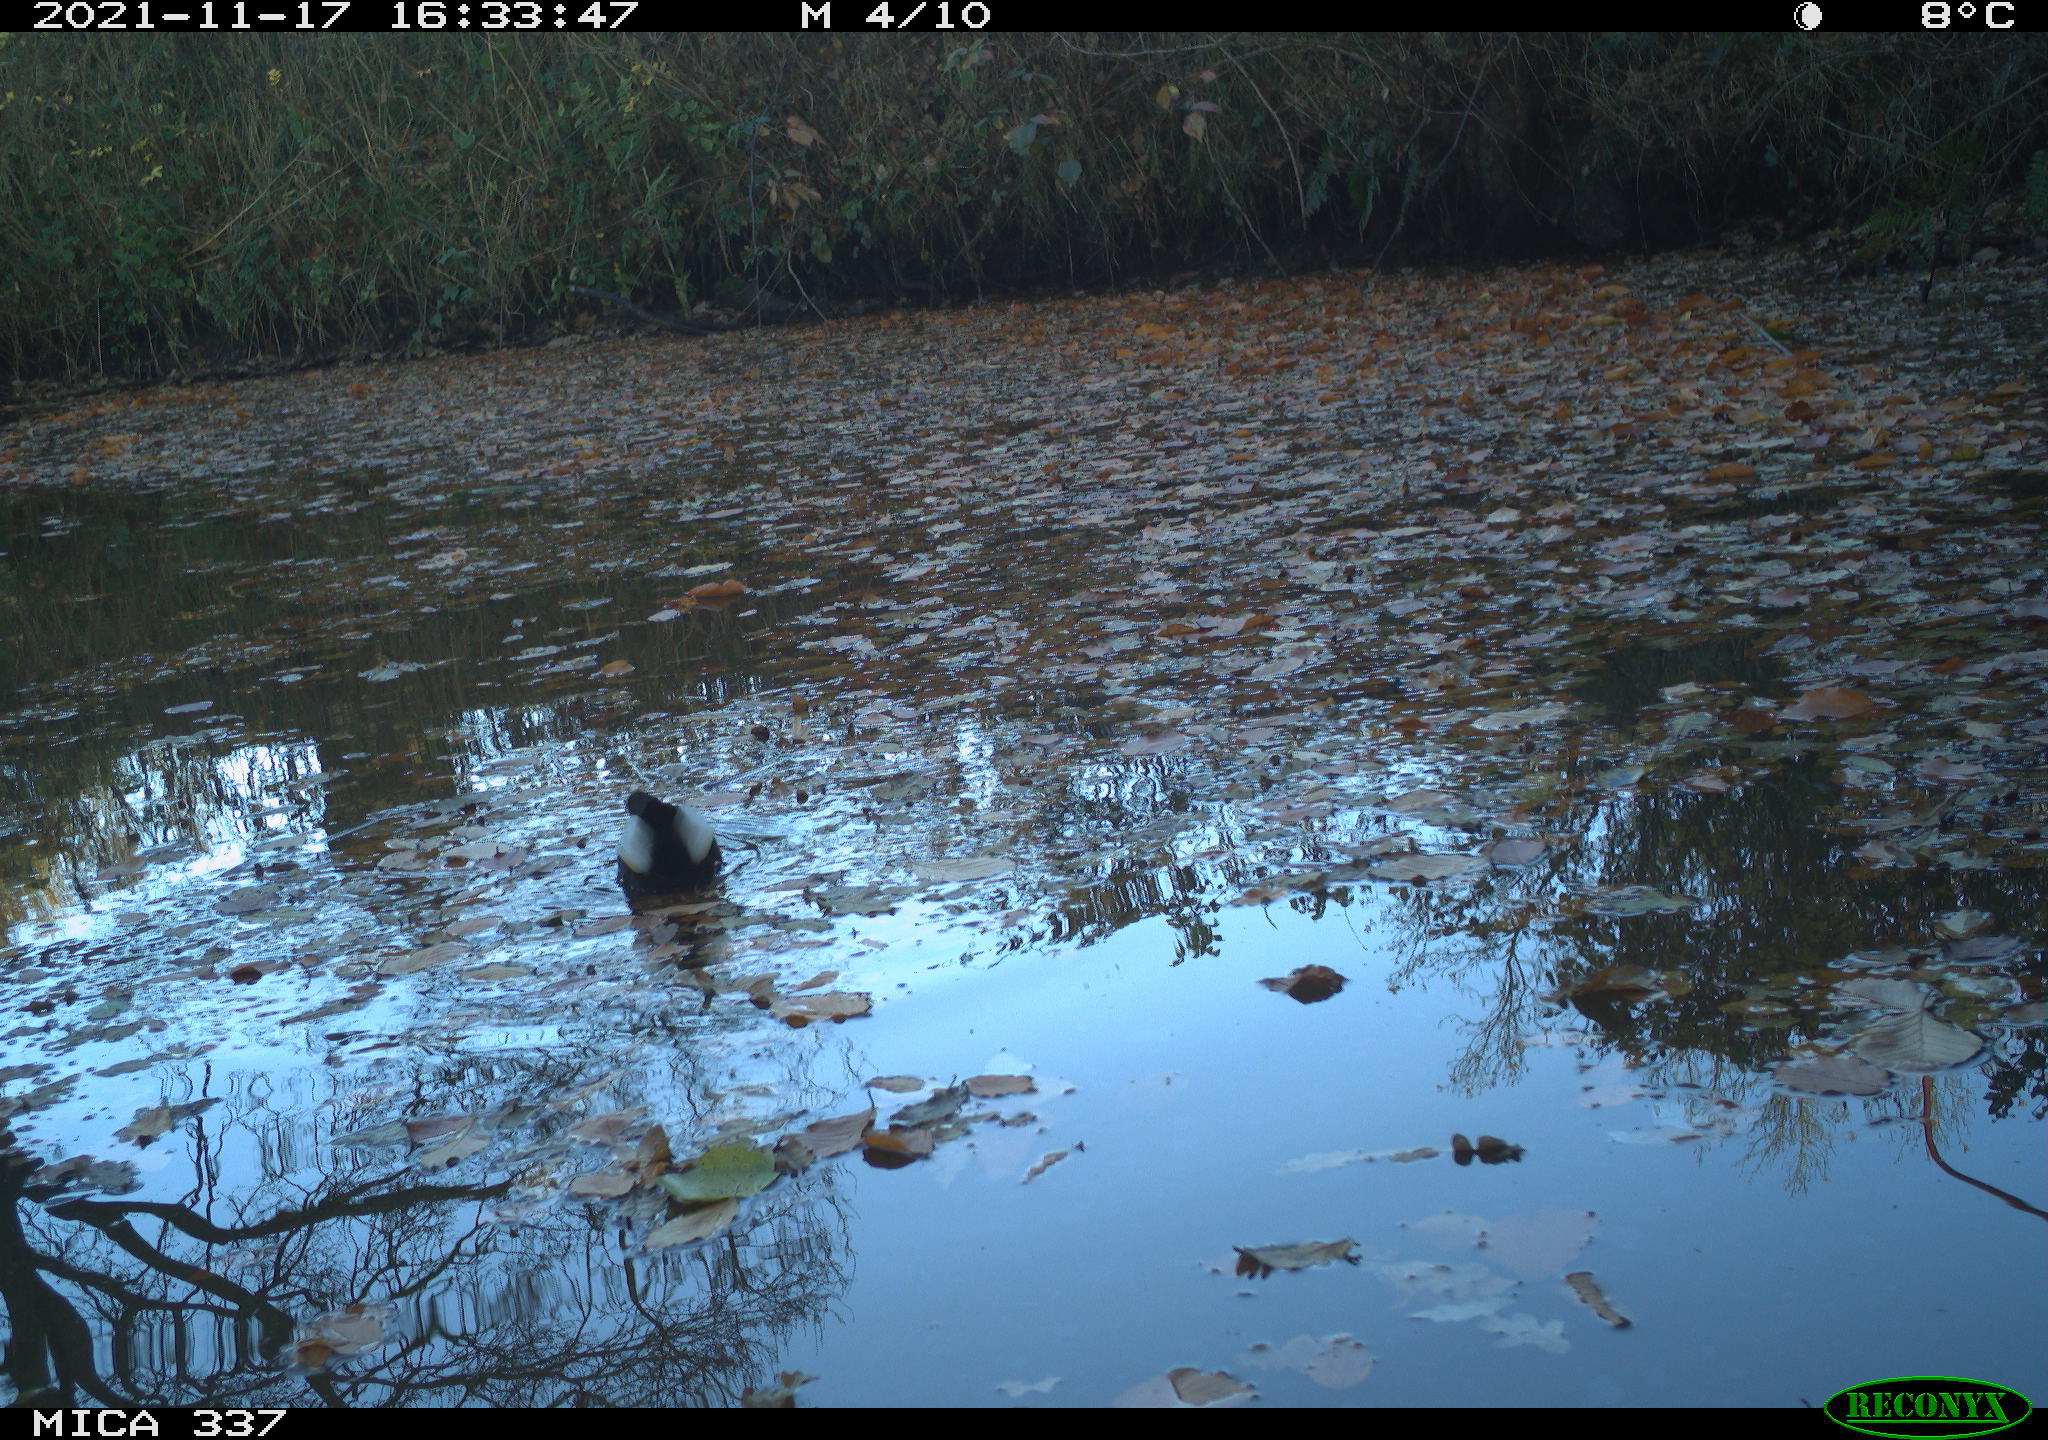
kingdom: Animalia
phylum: Chordata
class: Aves
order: Gruiformes
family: Rallidae
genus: Gallinula
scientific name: Gallinula chloropus
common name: Common moorhen
